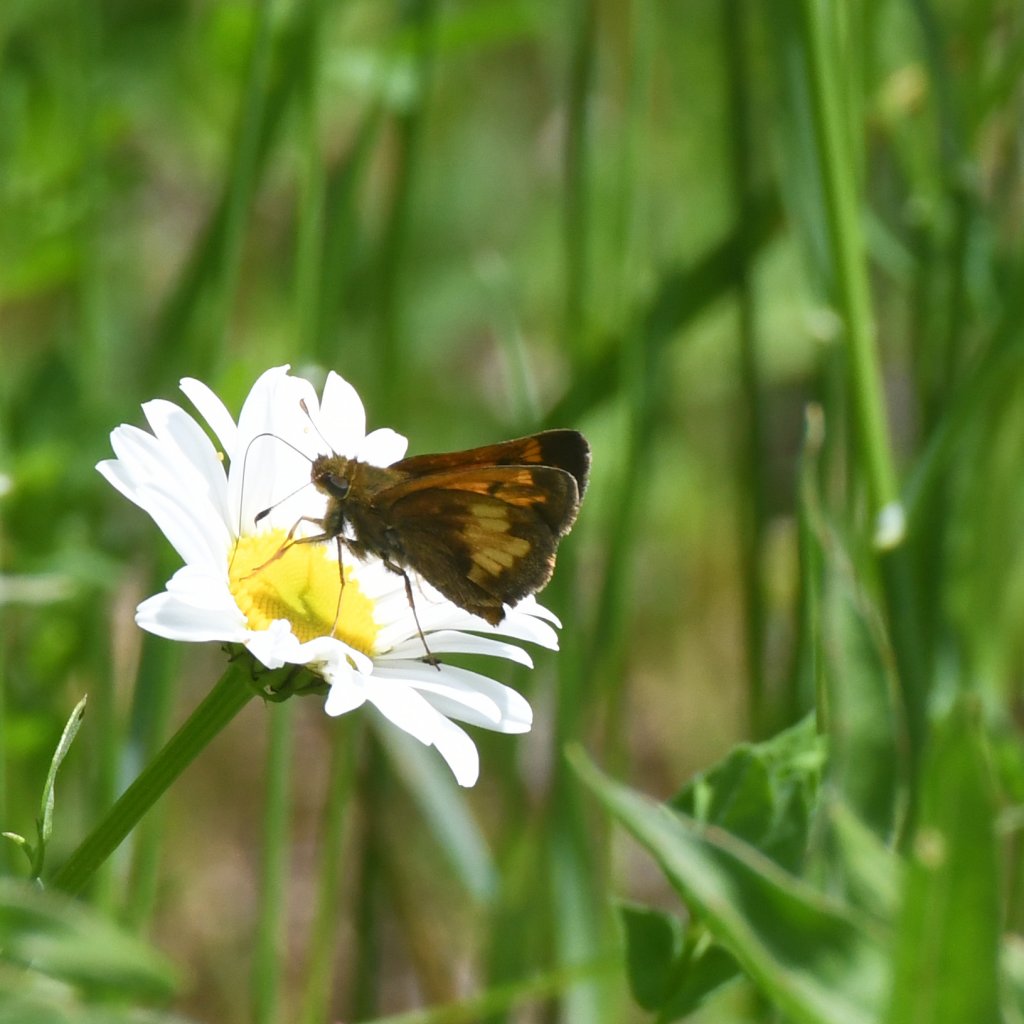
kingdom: Animalia
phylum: Arthropoda
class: Insecta
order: Lepidoptera
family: Hesperiidae
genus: Lon
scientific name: Lon hobomok
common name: Hobomok Skipper
